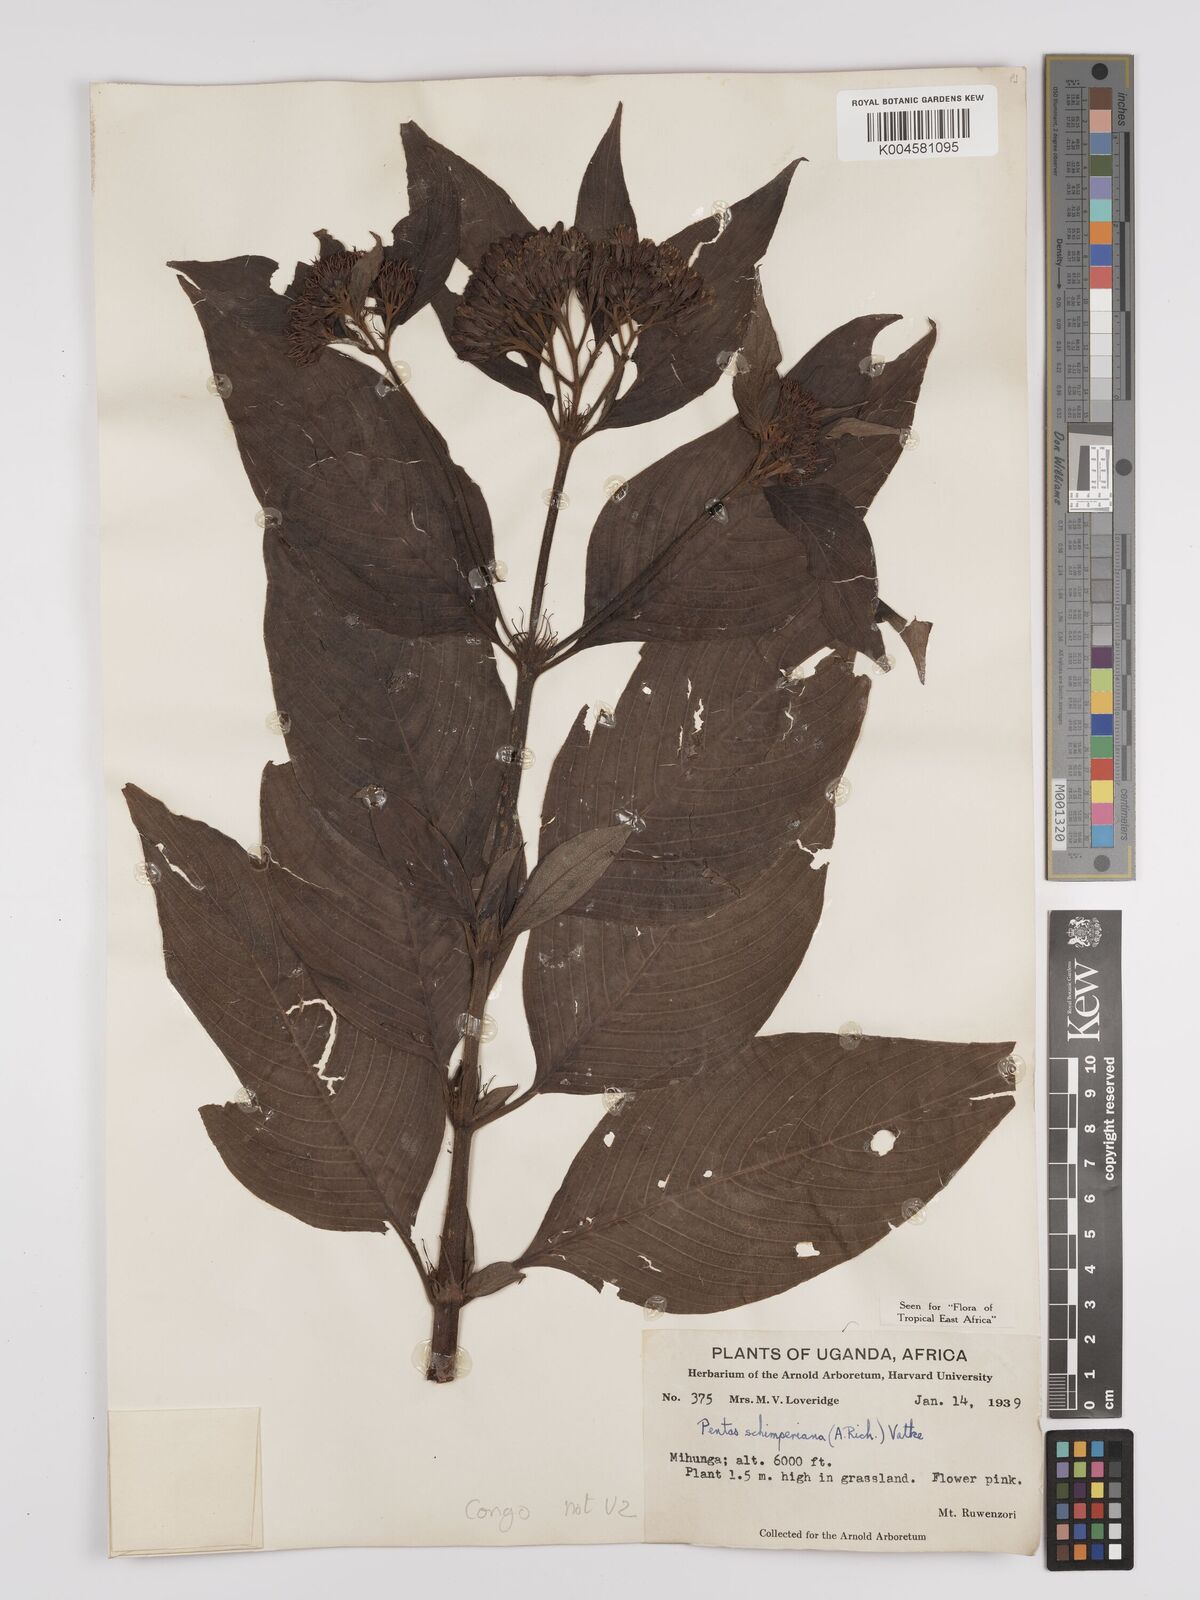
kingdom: Plantae
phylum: Tracheophyta
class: Magnoliopsida
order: Gentianales
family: Rubiaceae
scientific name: Rubiaceae
